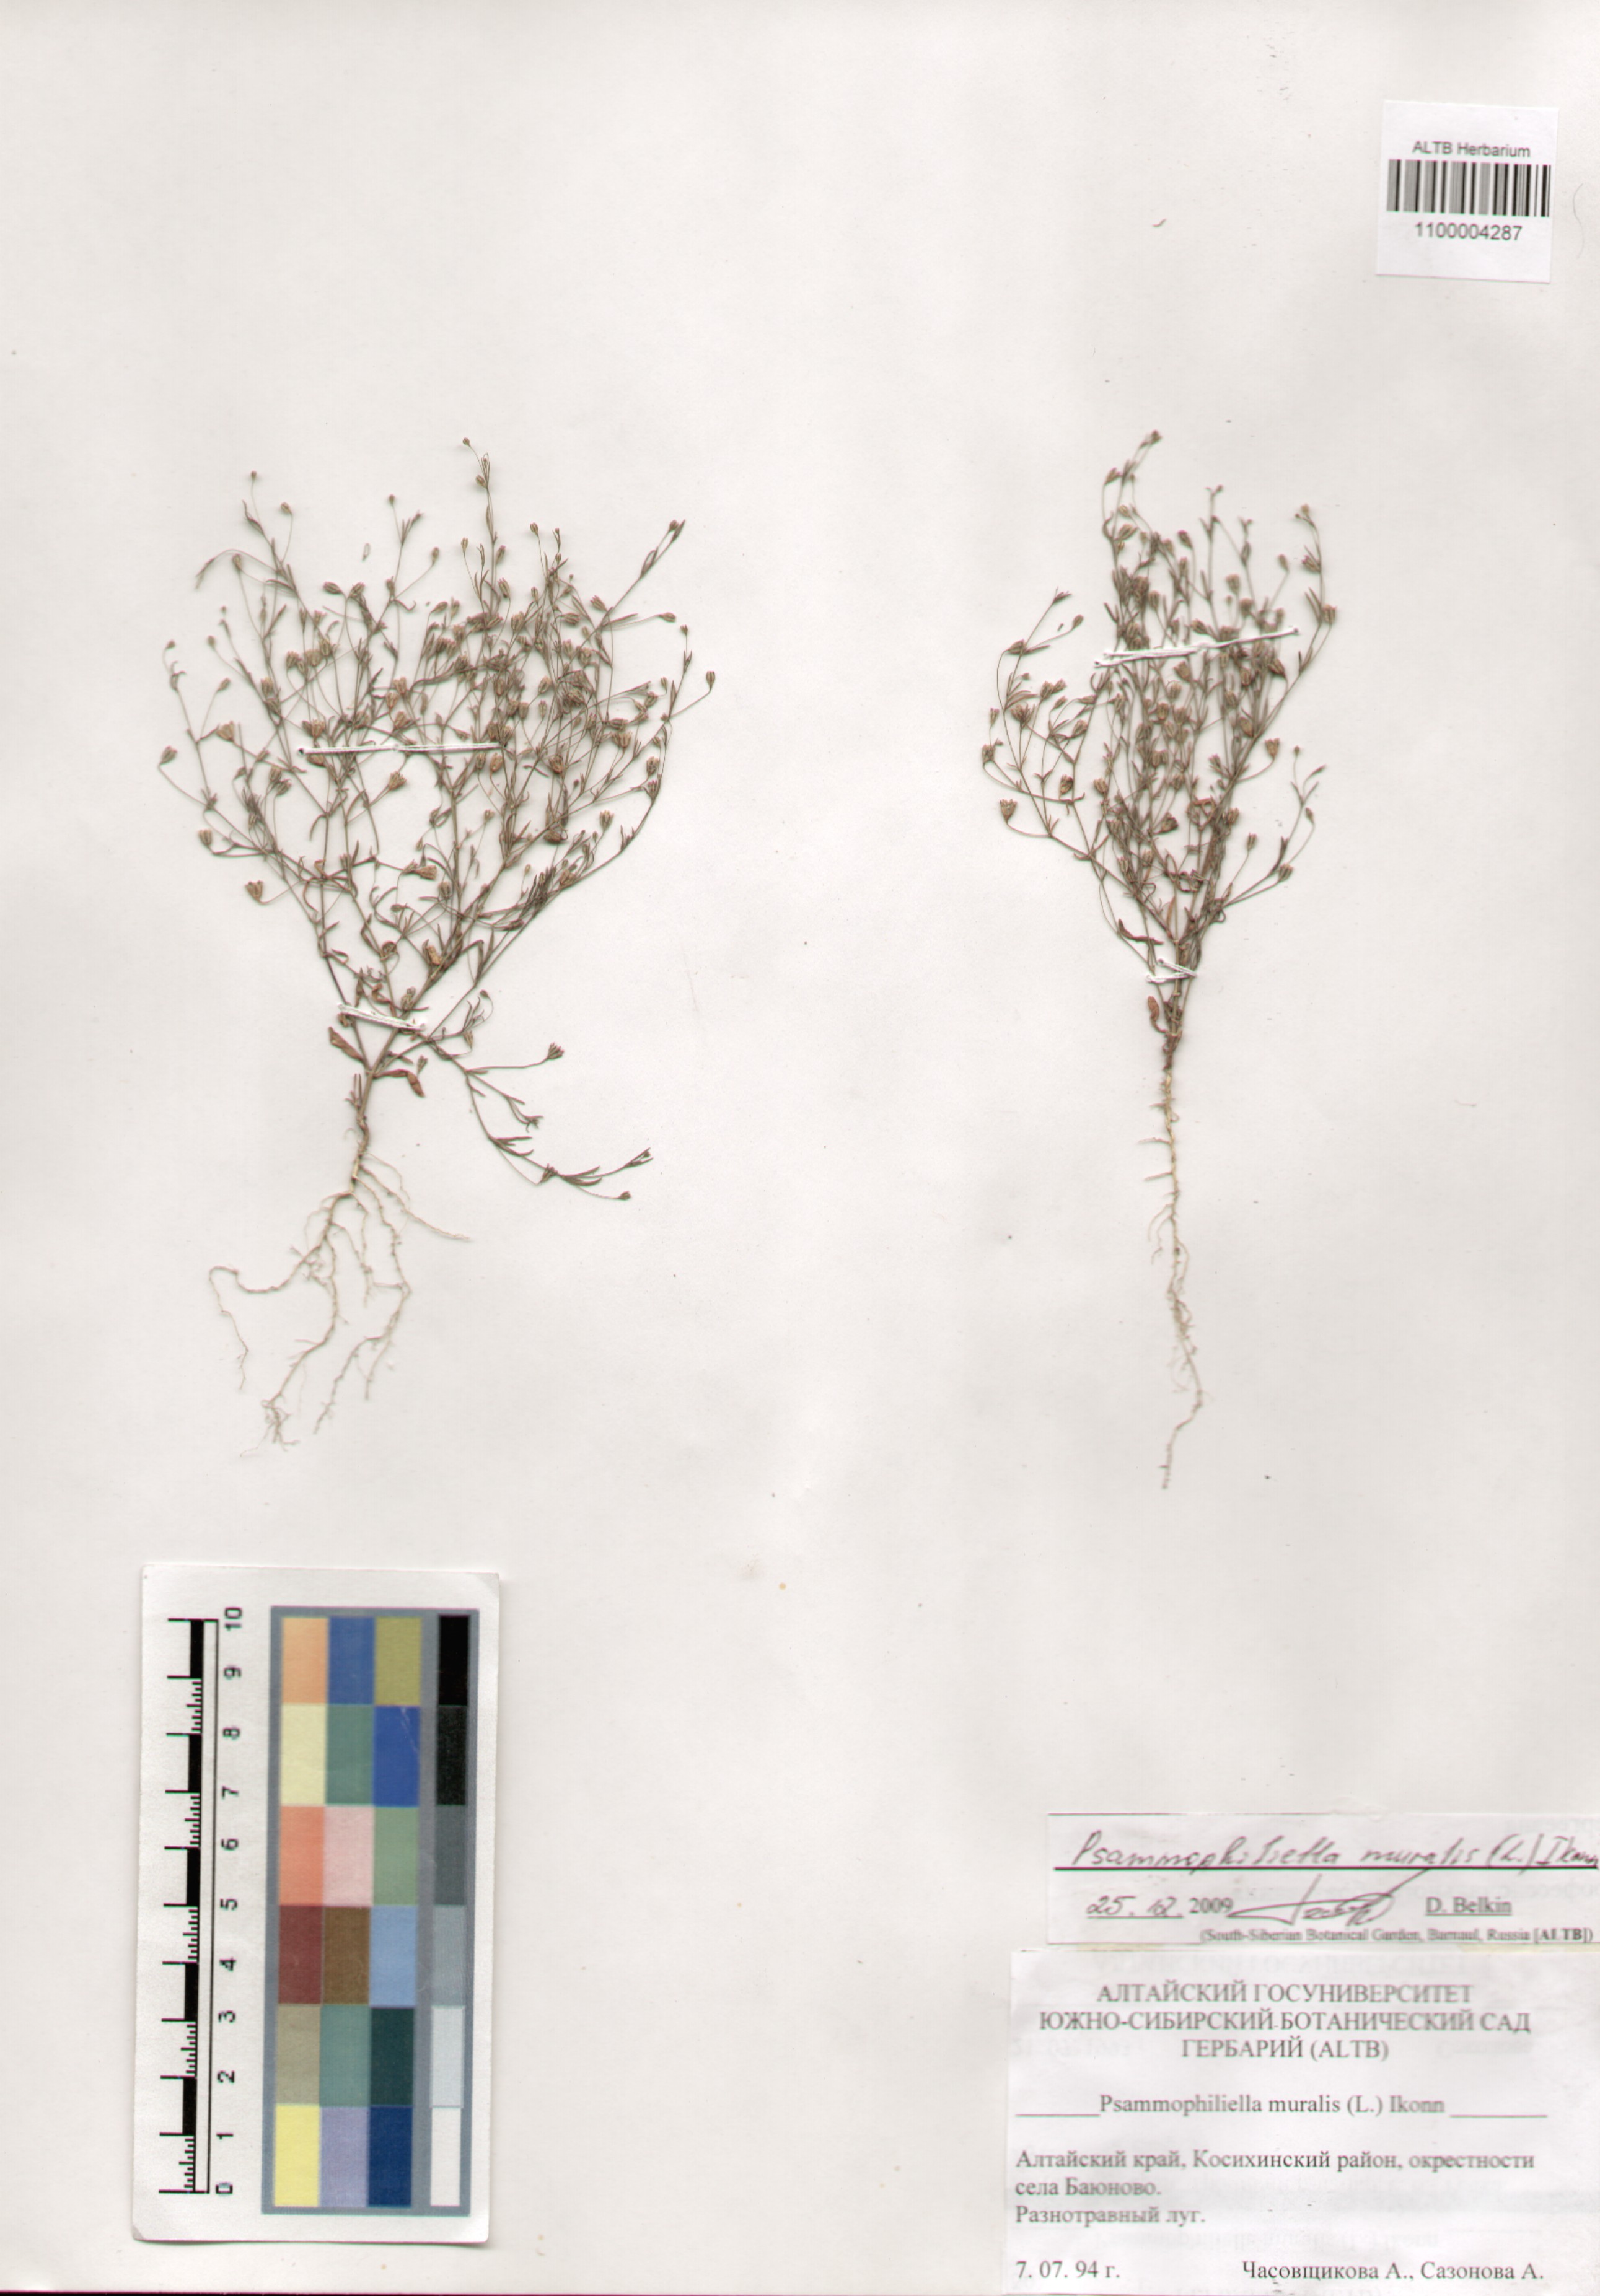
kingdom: Plantae
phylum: Tracheophyta
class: Magnoliopsida
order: Caryophyllales
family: Caryophyllaceae
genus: Psammophiliella
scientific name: Psammophiliella muralis
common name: Cushion baby's-breath
